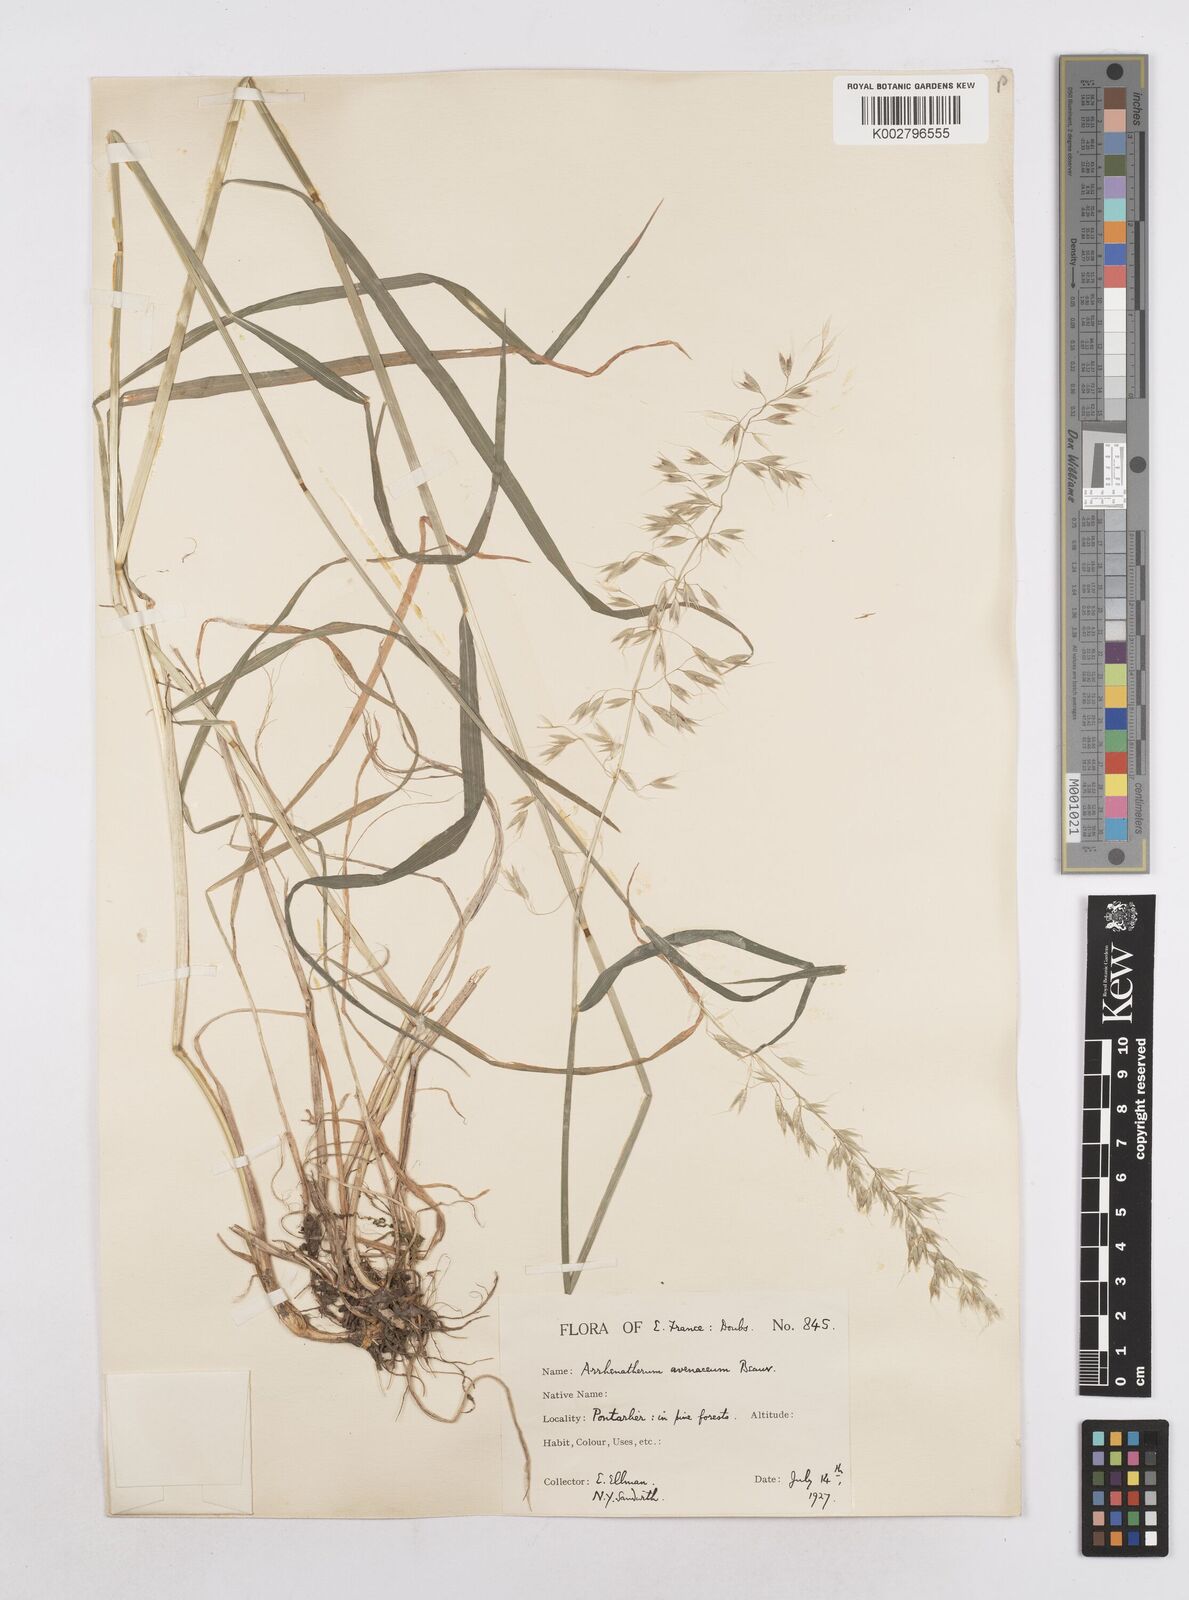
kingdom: Plantae
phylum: Tracheophyta
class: Liliopsida
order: Poales
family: Poaceae
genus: Arrhenatherum
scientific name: Arrhenatherum elatius
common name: Tall oatgrass
